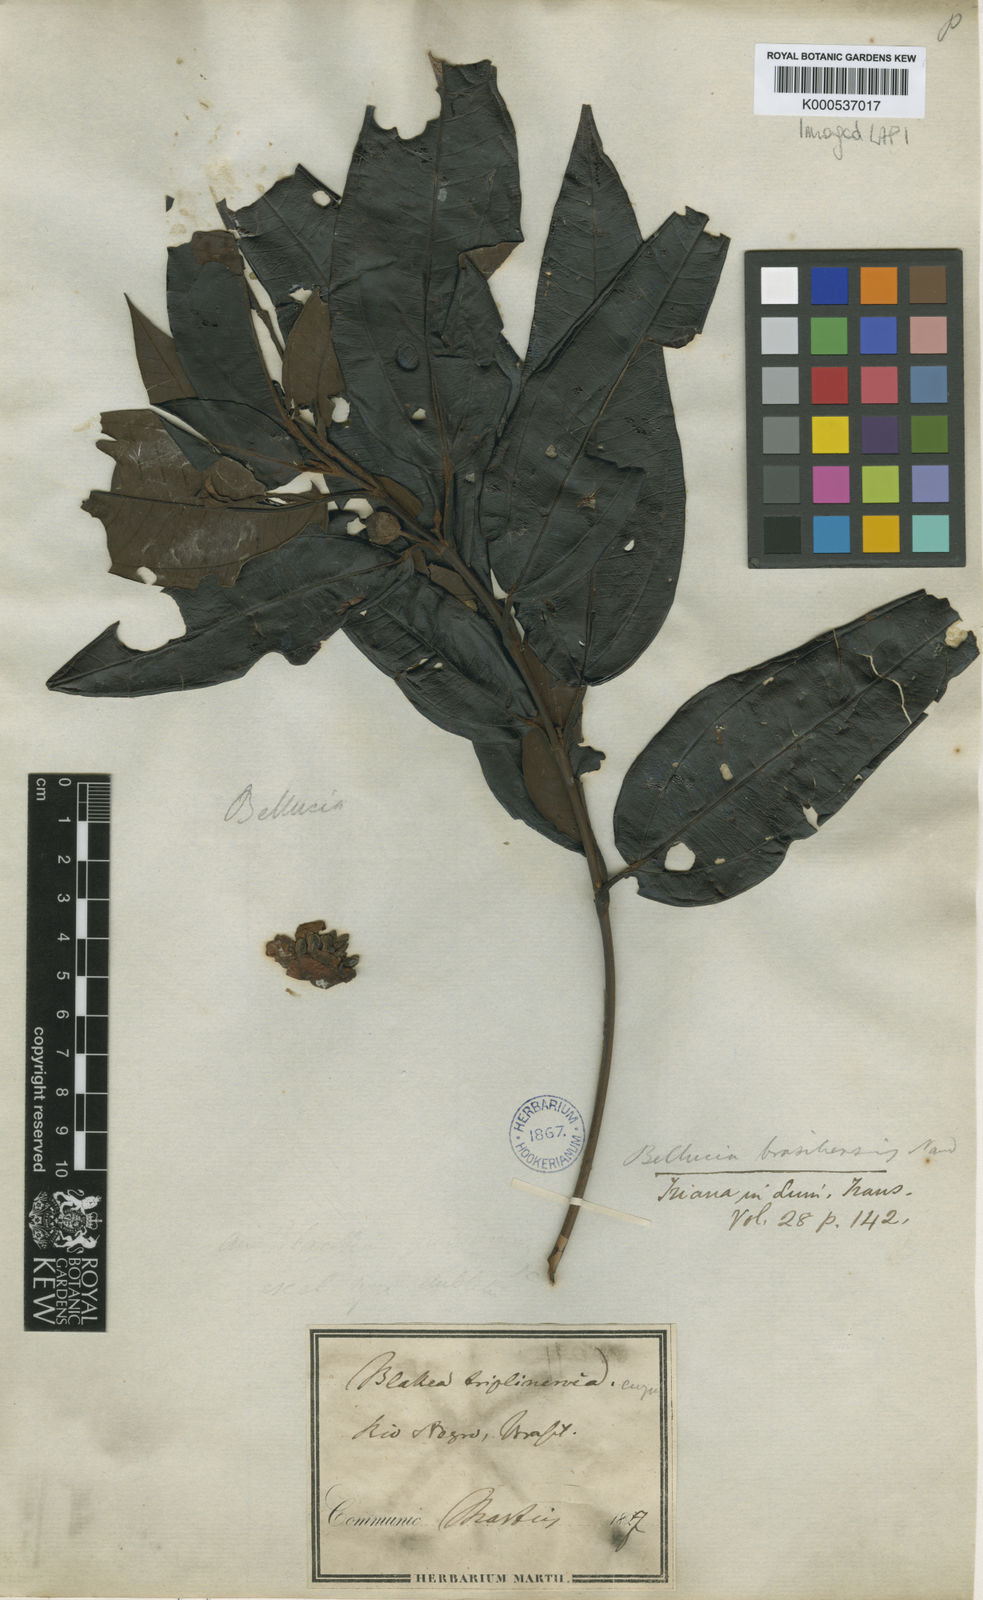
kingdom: Plantae
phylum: Tracheophyta
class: Magnoliopsida
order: Myrtales
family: Melastomataceae
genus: Bellucia
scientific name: Bellucia grossularioides
